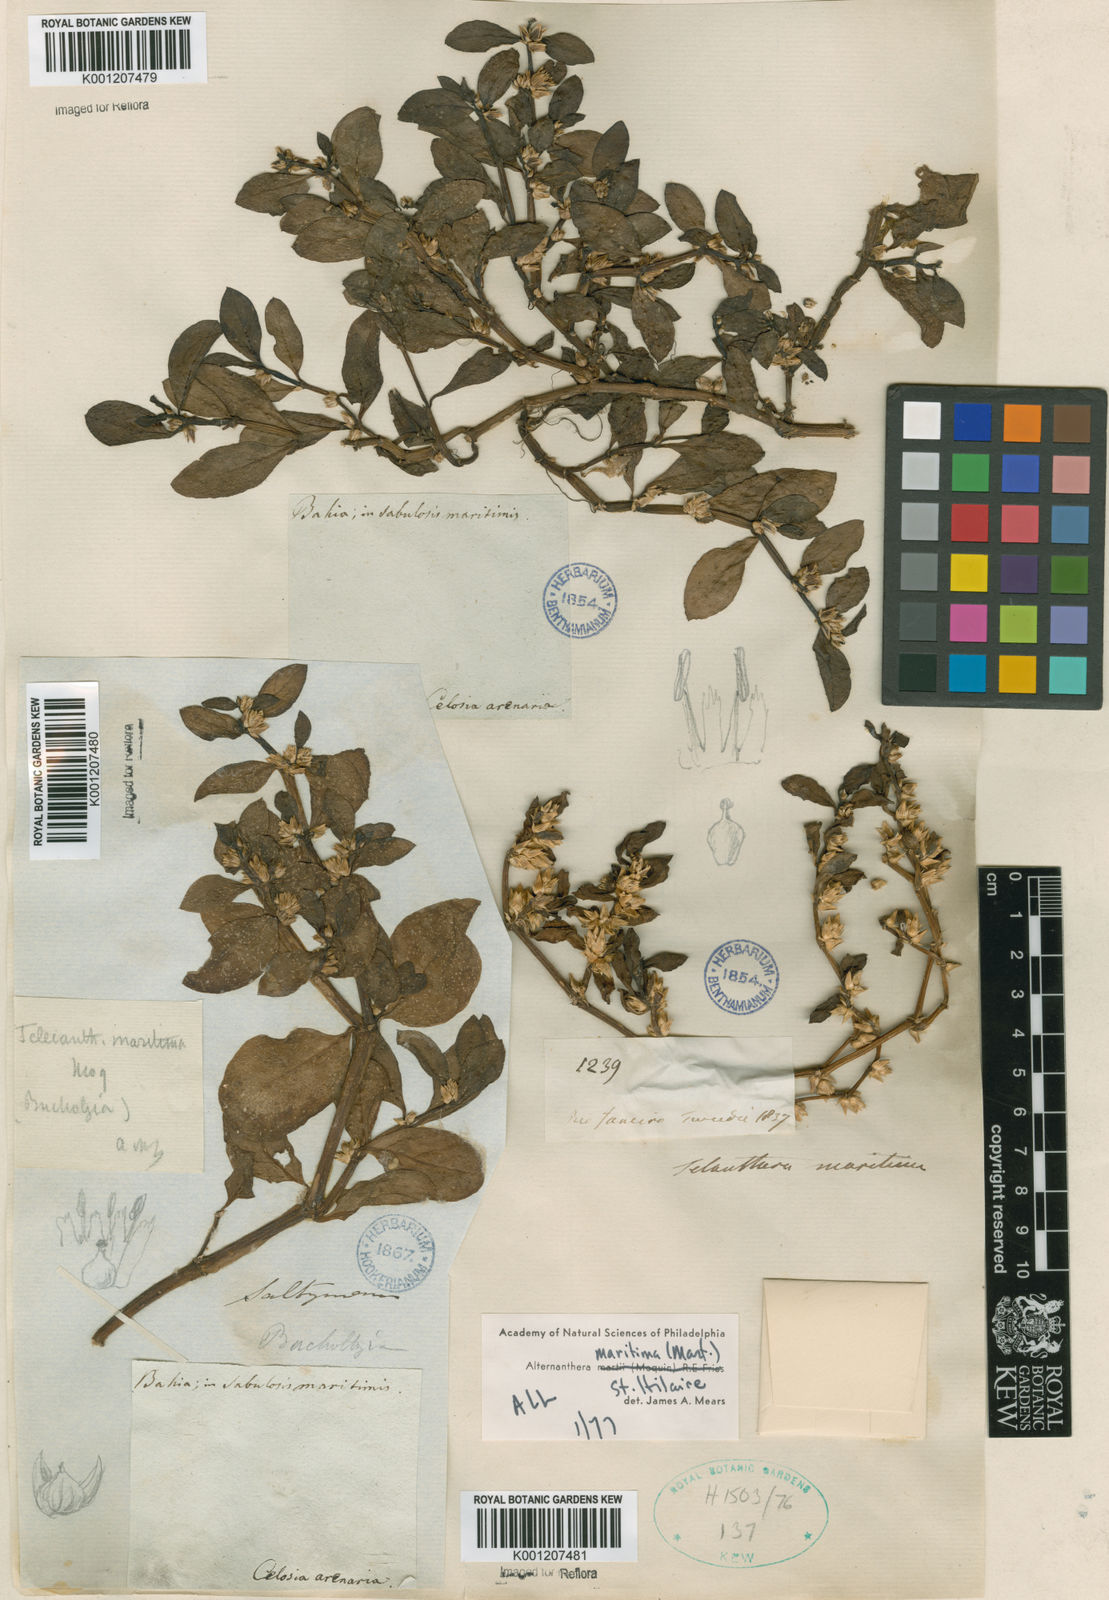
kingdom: Plantae
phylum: Tracheophyta
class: Magnoliopsida
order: Caryophyllales
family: Amaranthaceae
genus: Alternanthera
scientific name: Alternanthera littoralis
